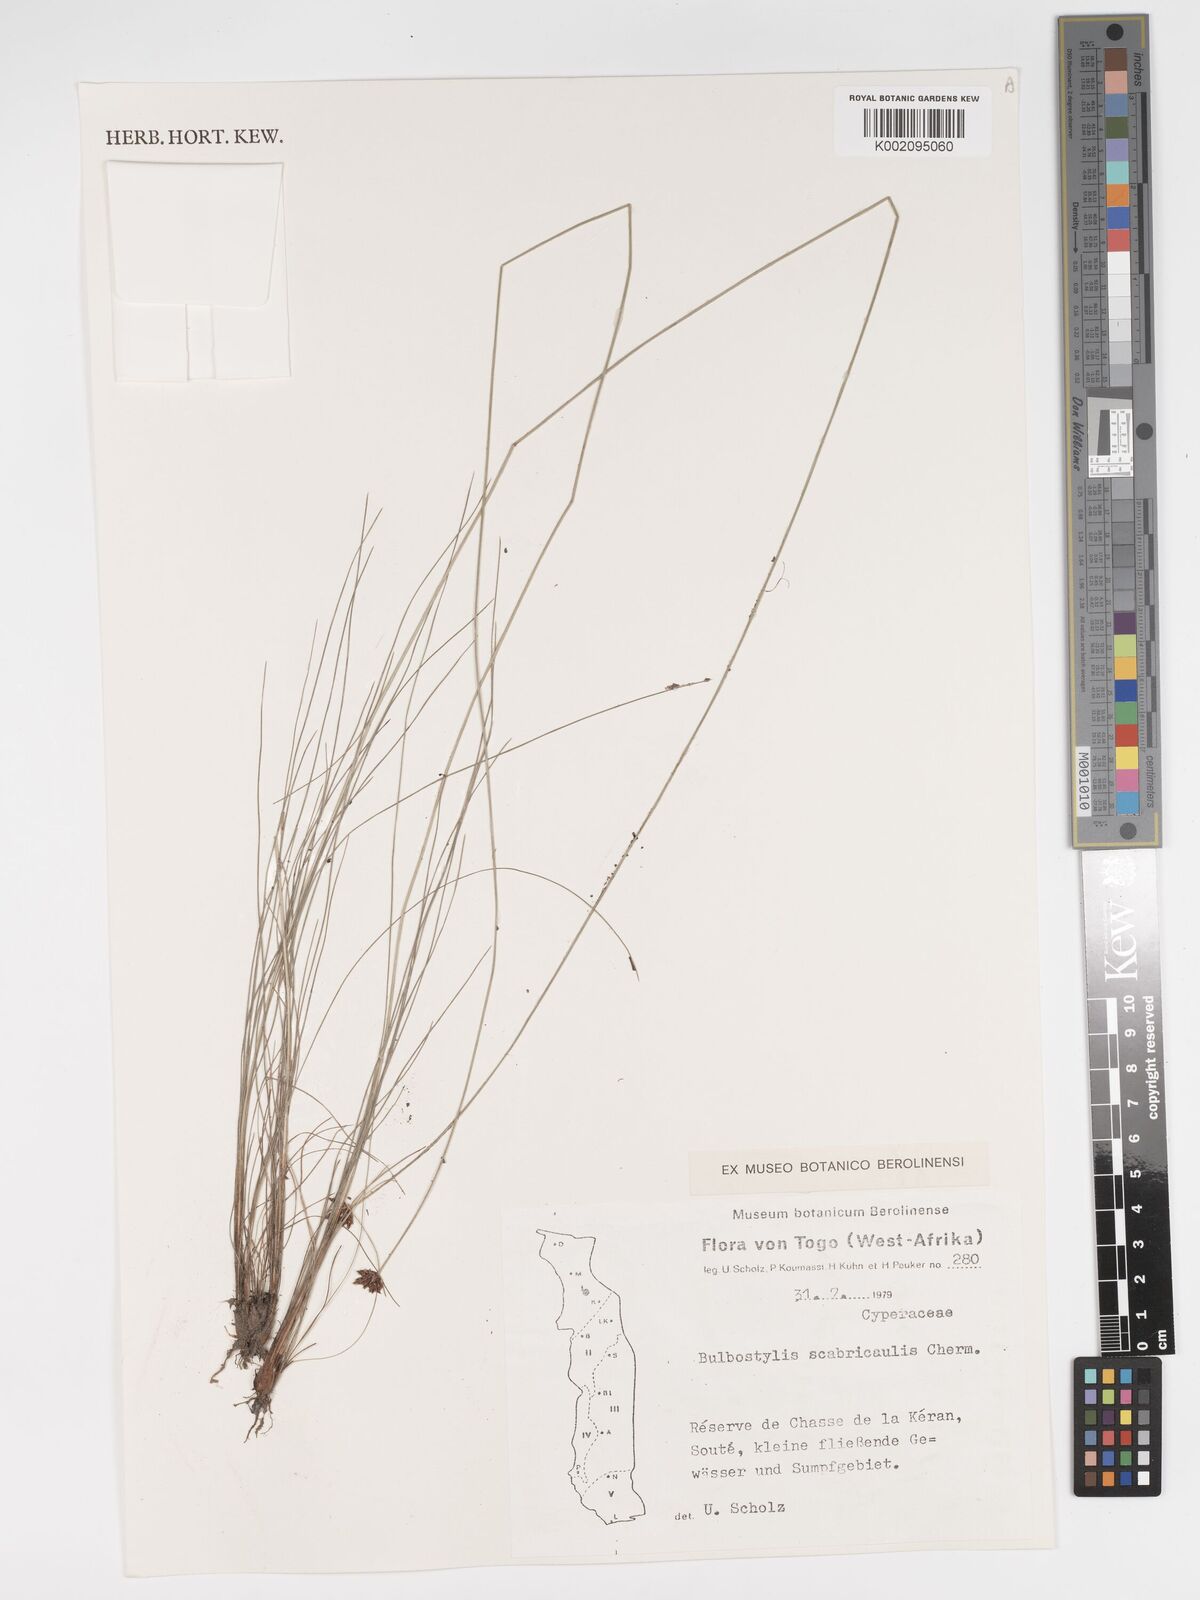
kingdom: Plantae
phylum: Tracheophyta
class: Liliopsida
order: Poales
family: Cyperaceae
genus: Bulbostylis
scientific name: Bulbostylis scabricaulis
